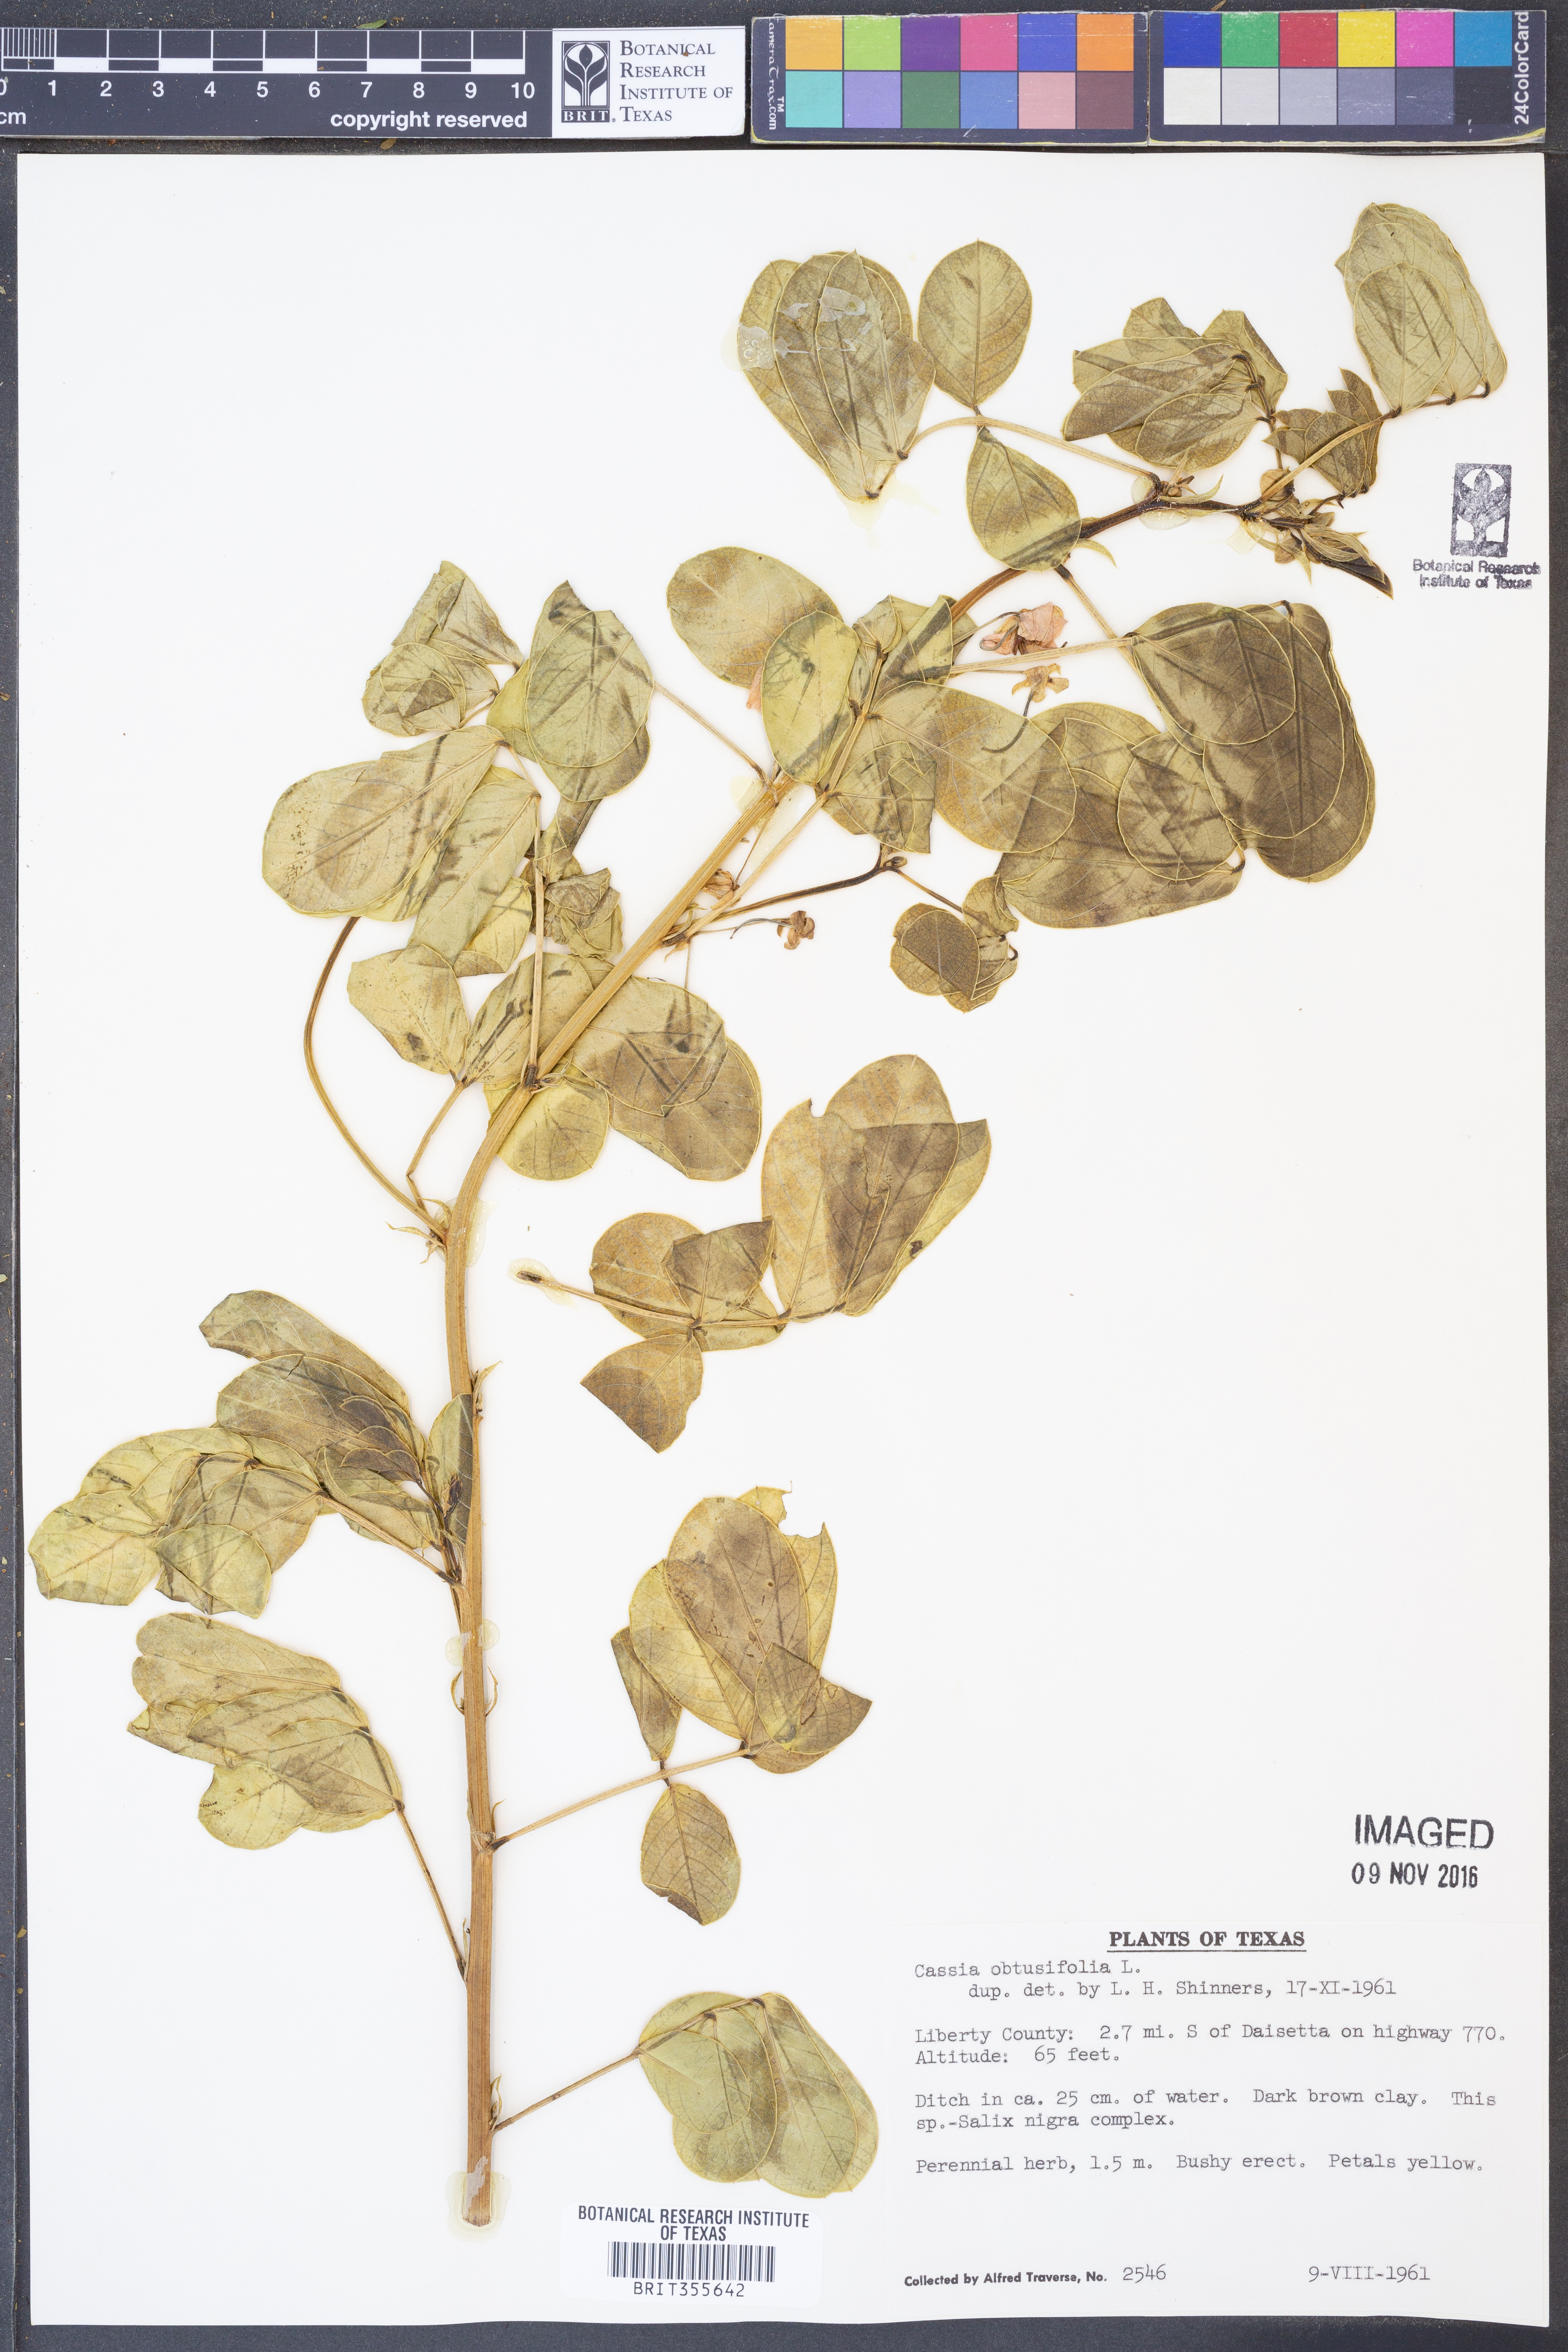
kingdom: Plantae
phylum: Tracheophyta
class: Magnoliopsida
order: Fabales
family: Fabaceae
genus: Senna
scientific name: Senna obtusifolia
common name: Java-bean
